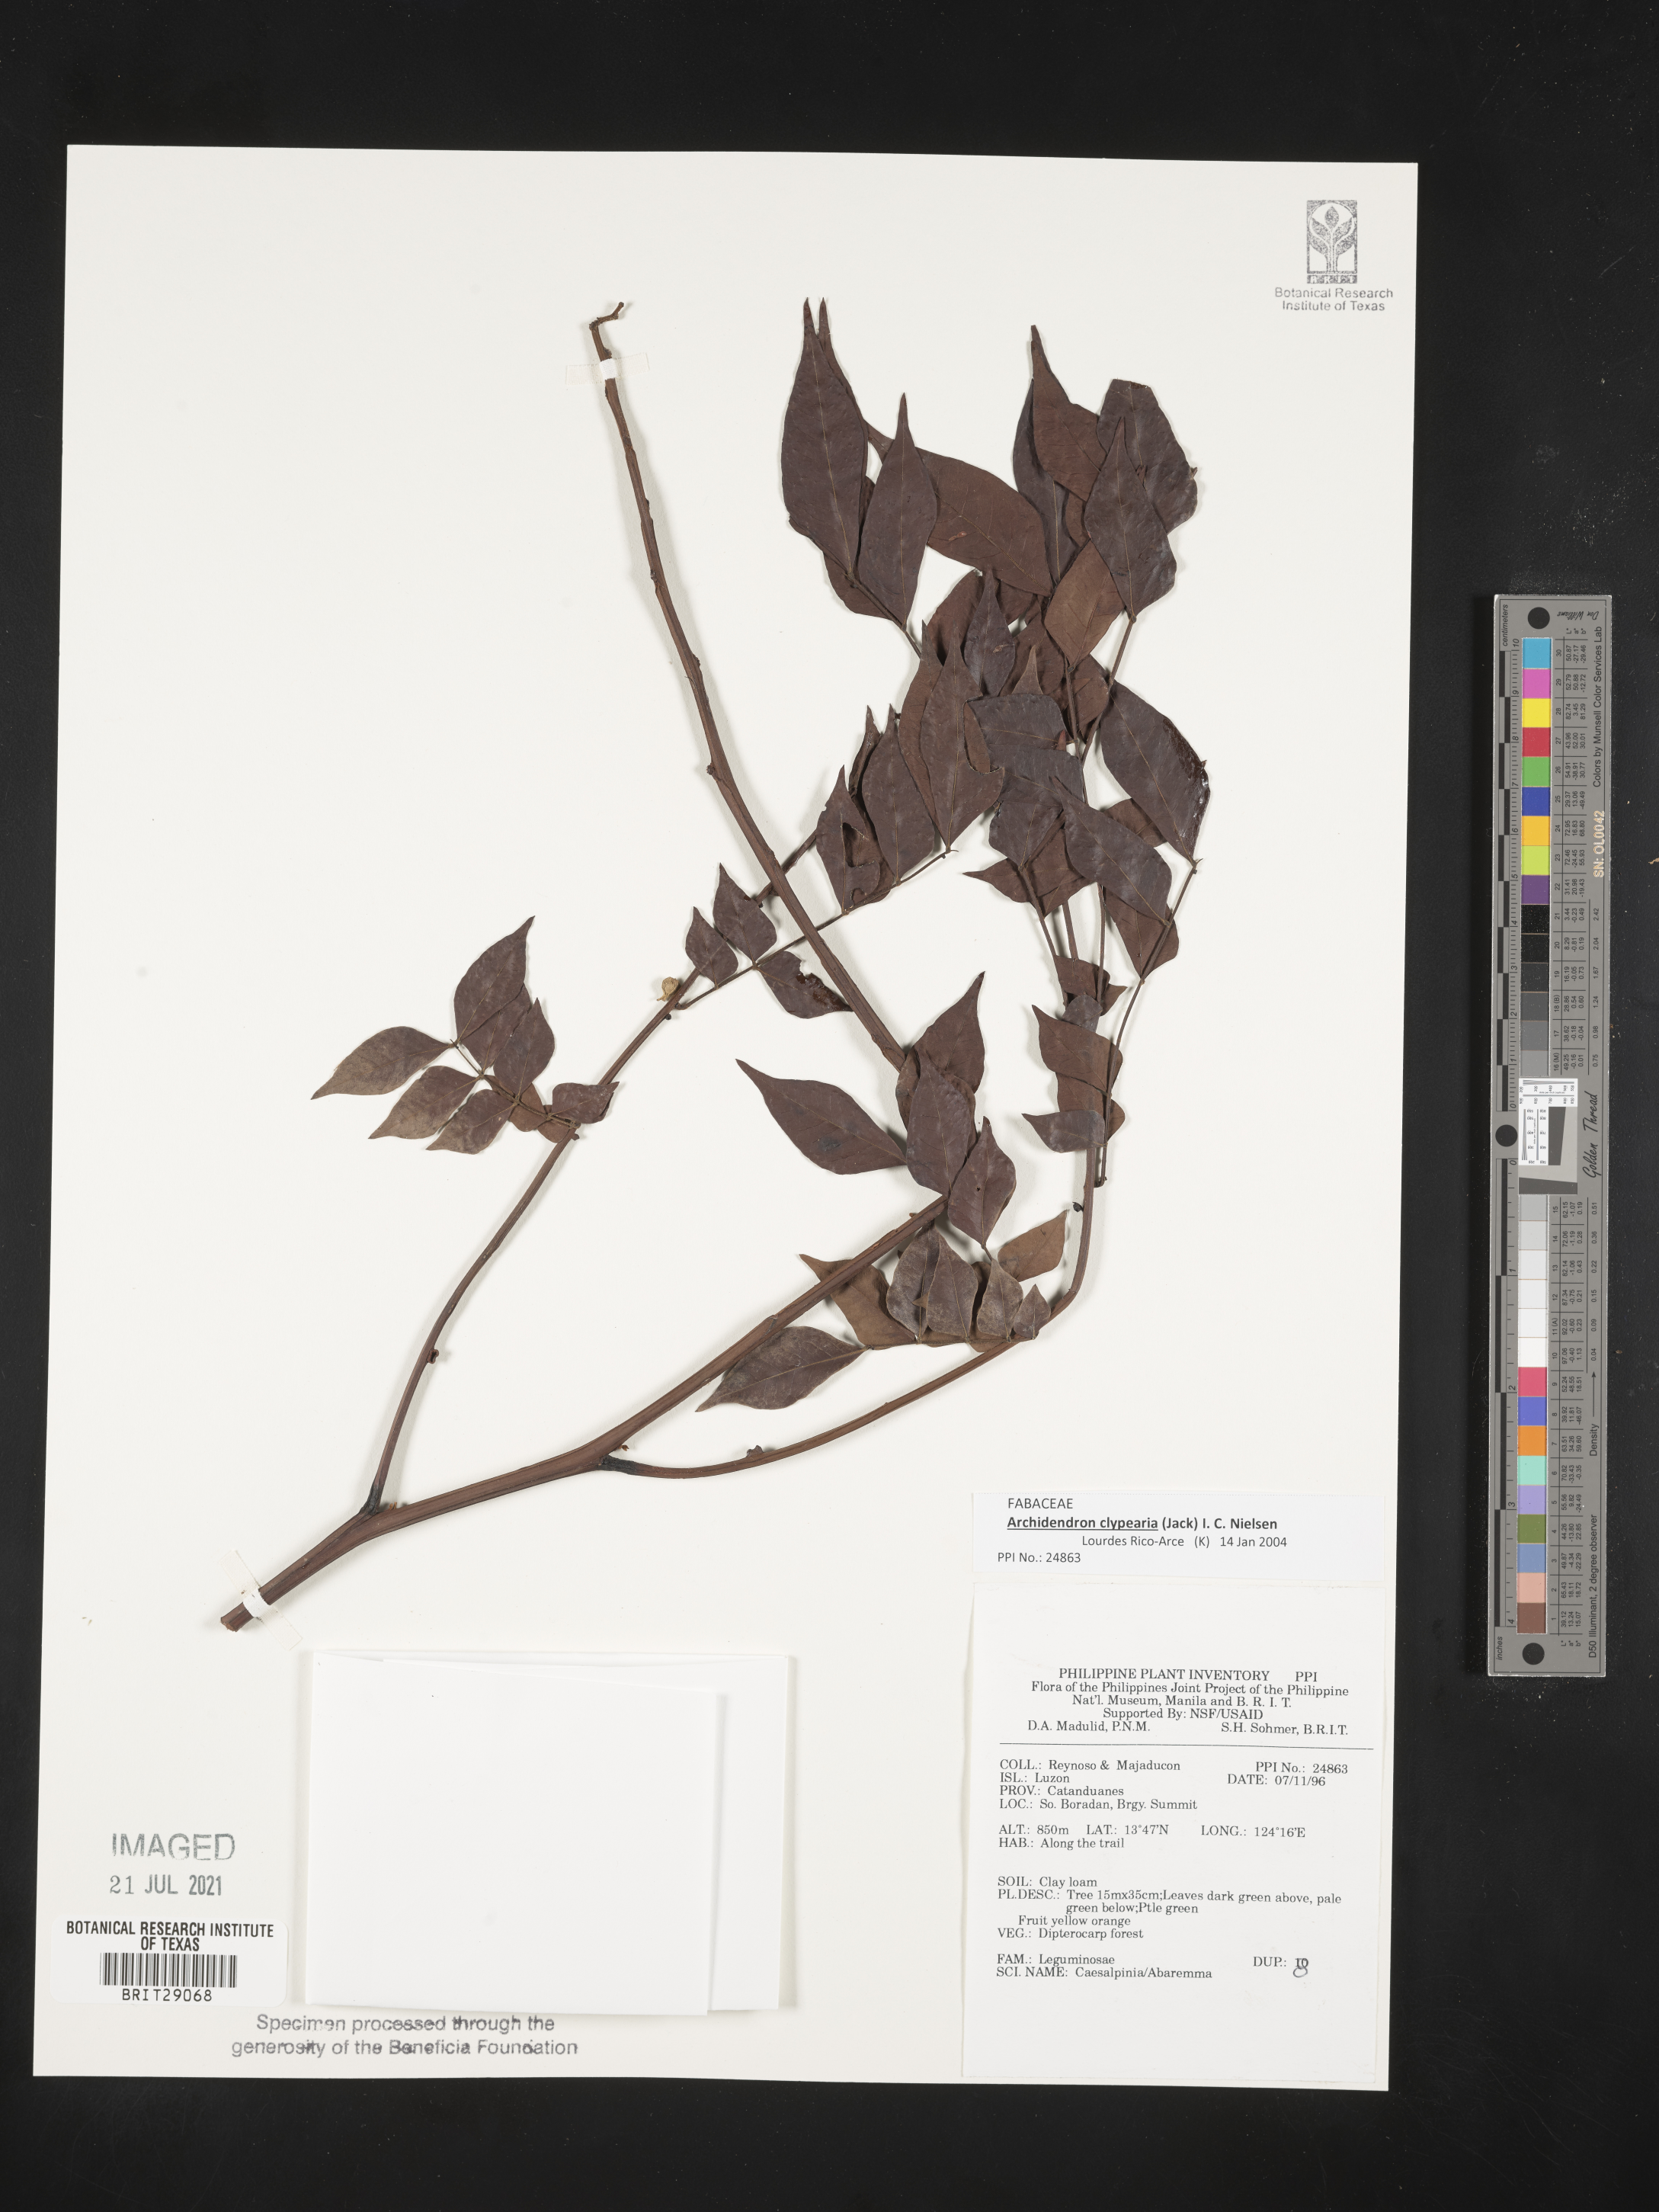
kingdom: Plantae
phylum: Tracheophyta
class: Magnoliopsida
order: Fabales
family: Fabaceae
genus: Caesalpinia
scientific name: Caesalpinia
